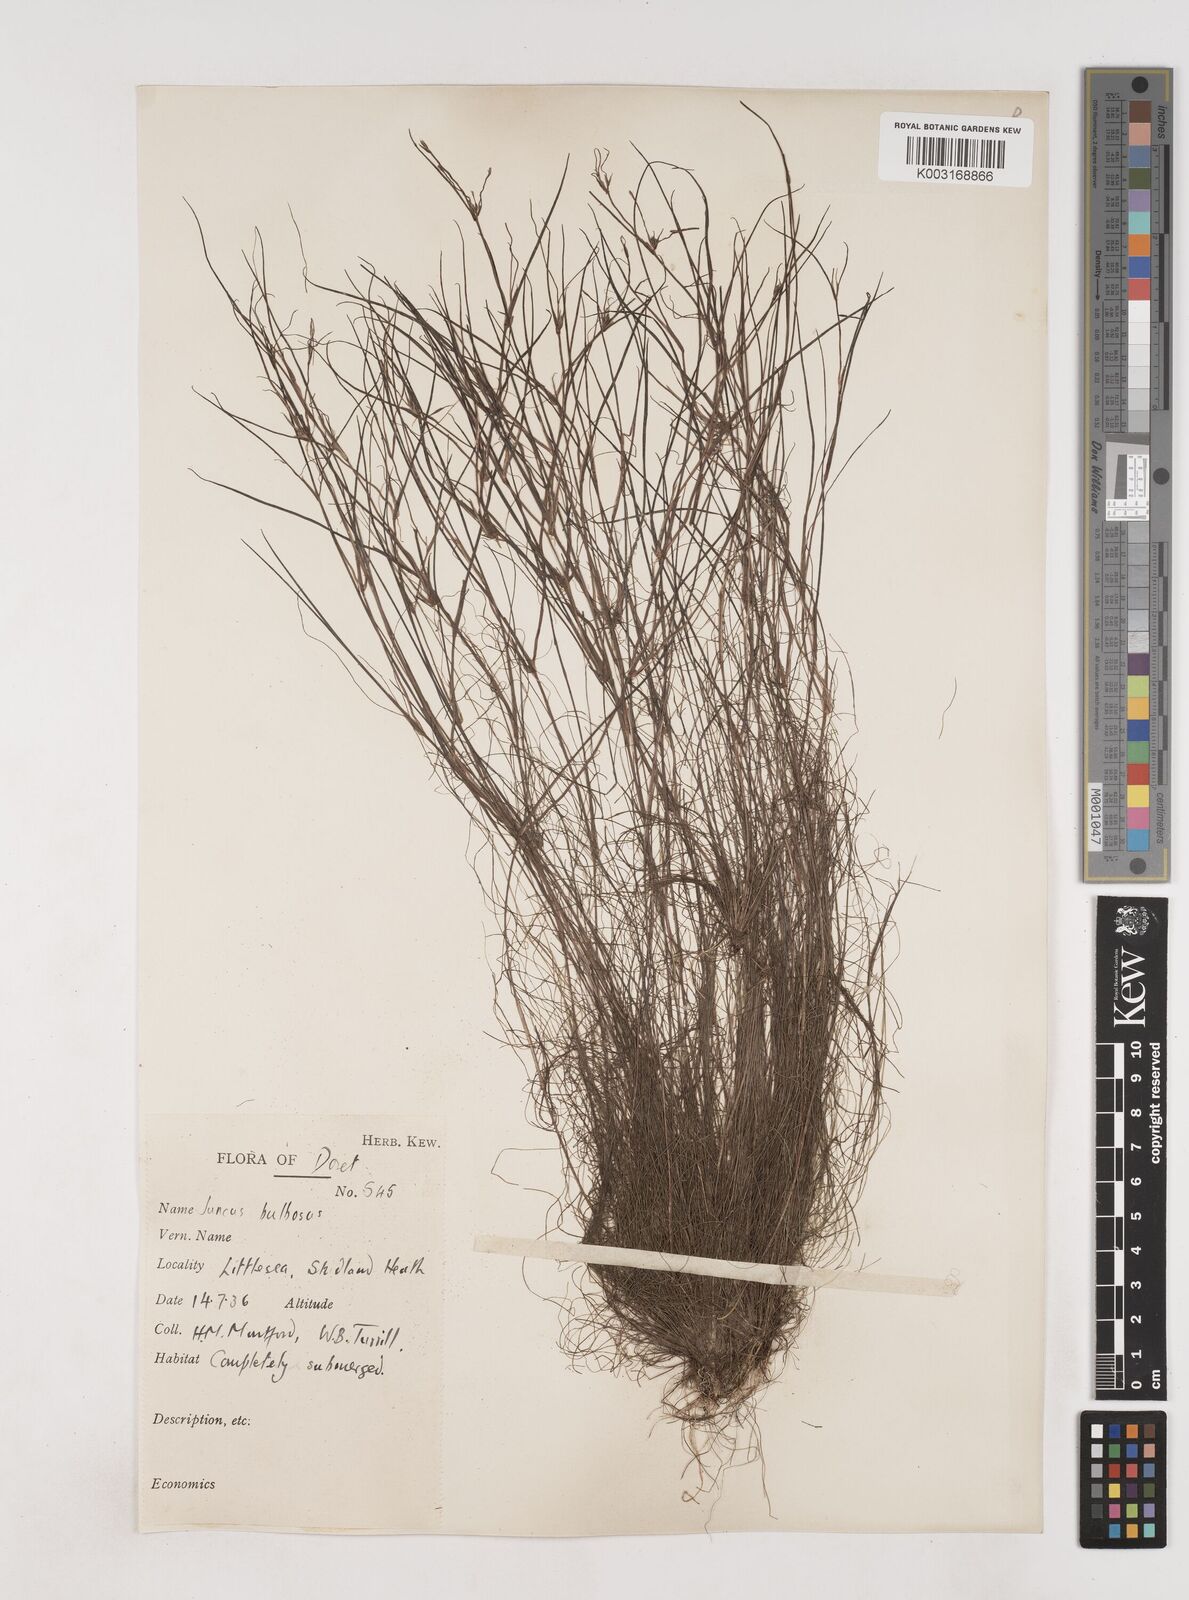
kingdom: Plantae
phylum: Tracheophyta
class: Liliopsida
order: Poales
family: Juncaceae
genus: Juncus
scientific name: Juncus bulbosus
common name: Bulbous rush
